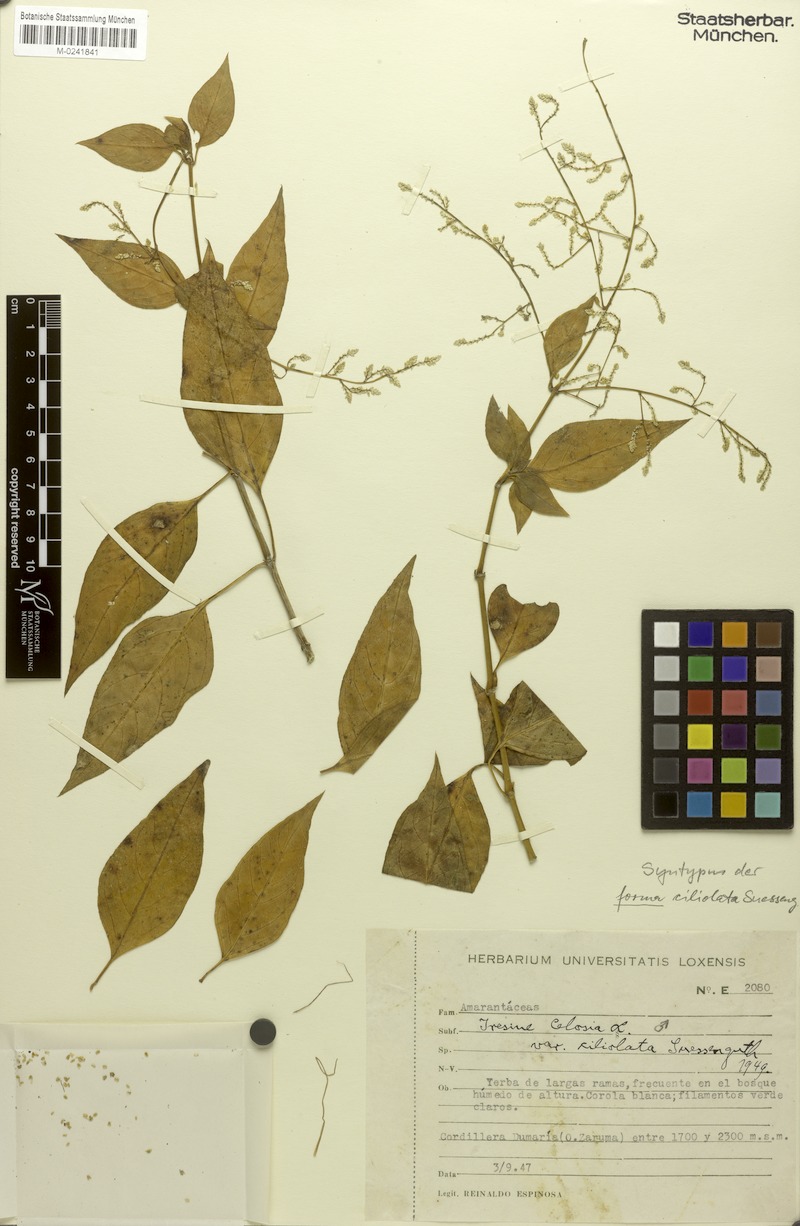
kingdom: Plantae
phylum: Tracheophyta
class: Magnoliopsida
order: Caryophyllales
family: Amaranthaceae
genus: Iresine
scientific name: Iresine diffusa
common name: Juba's-bush
